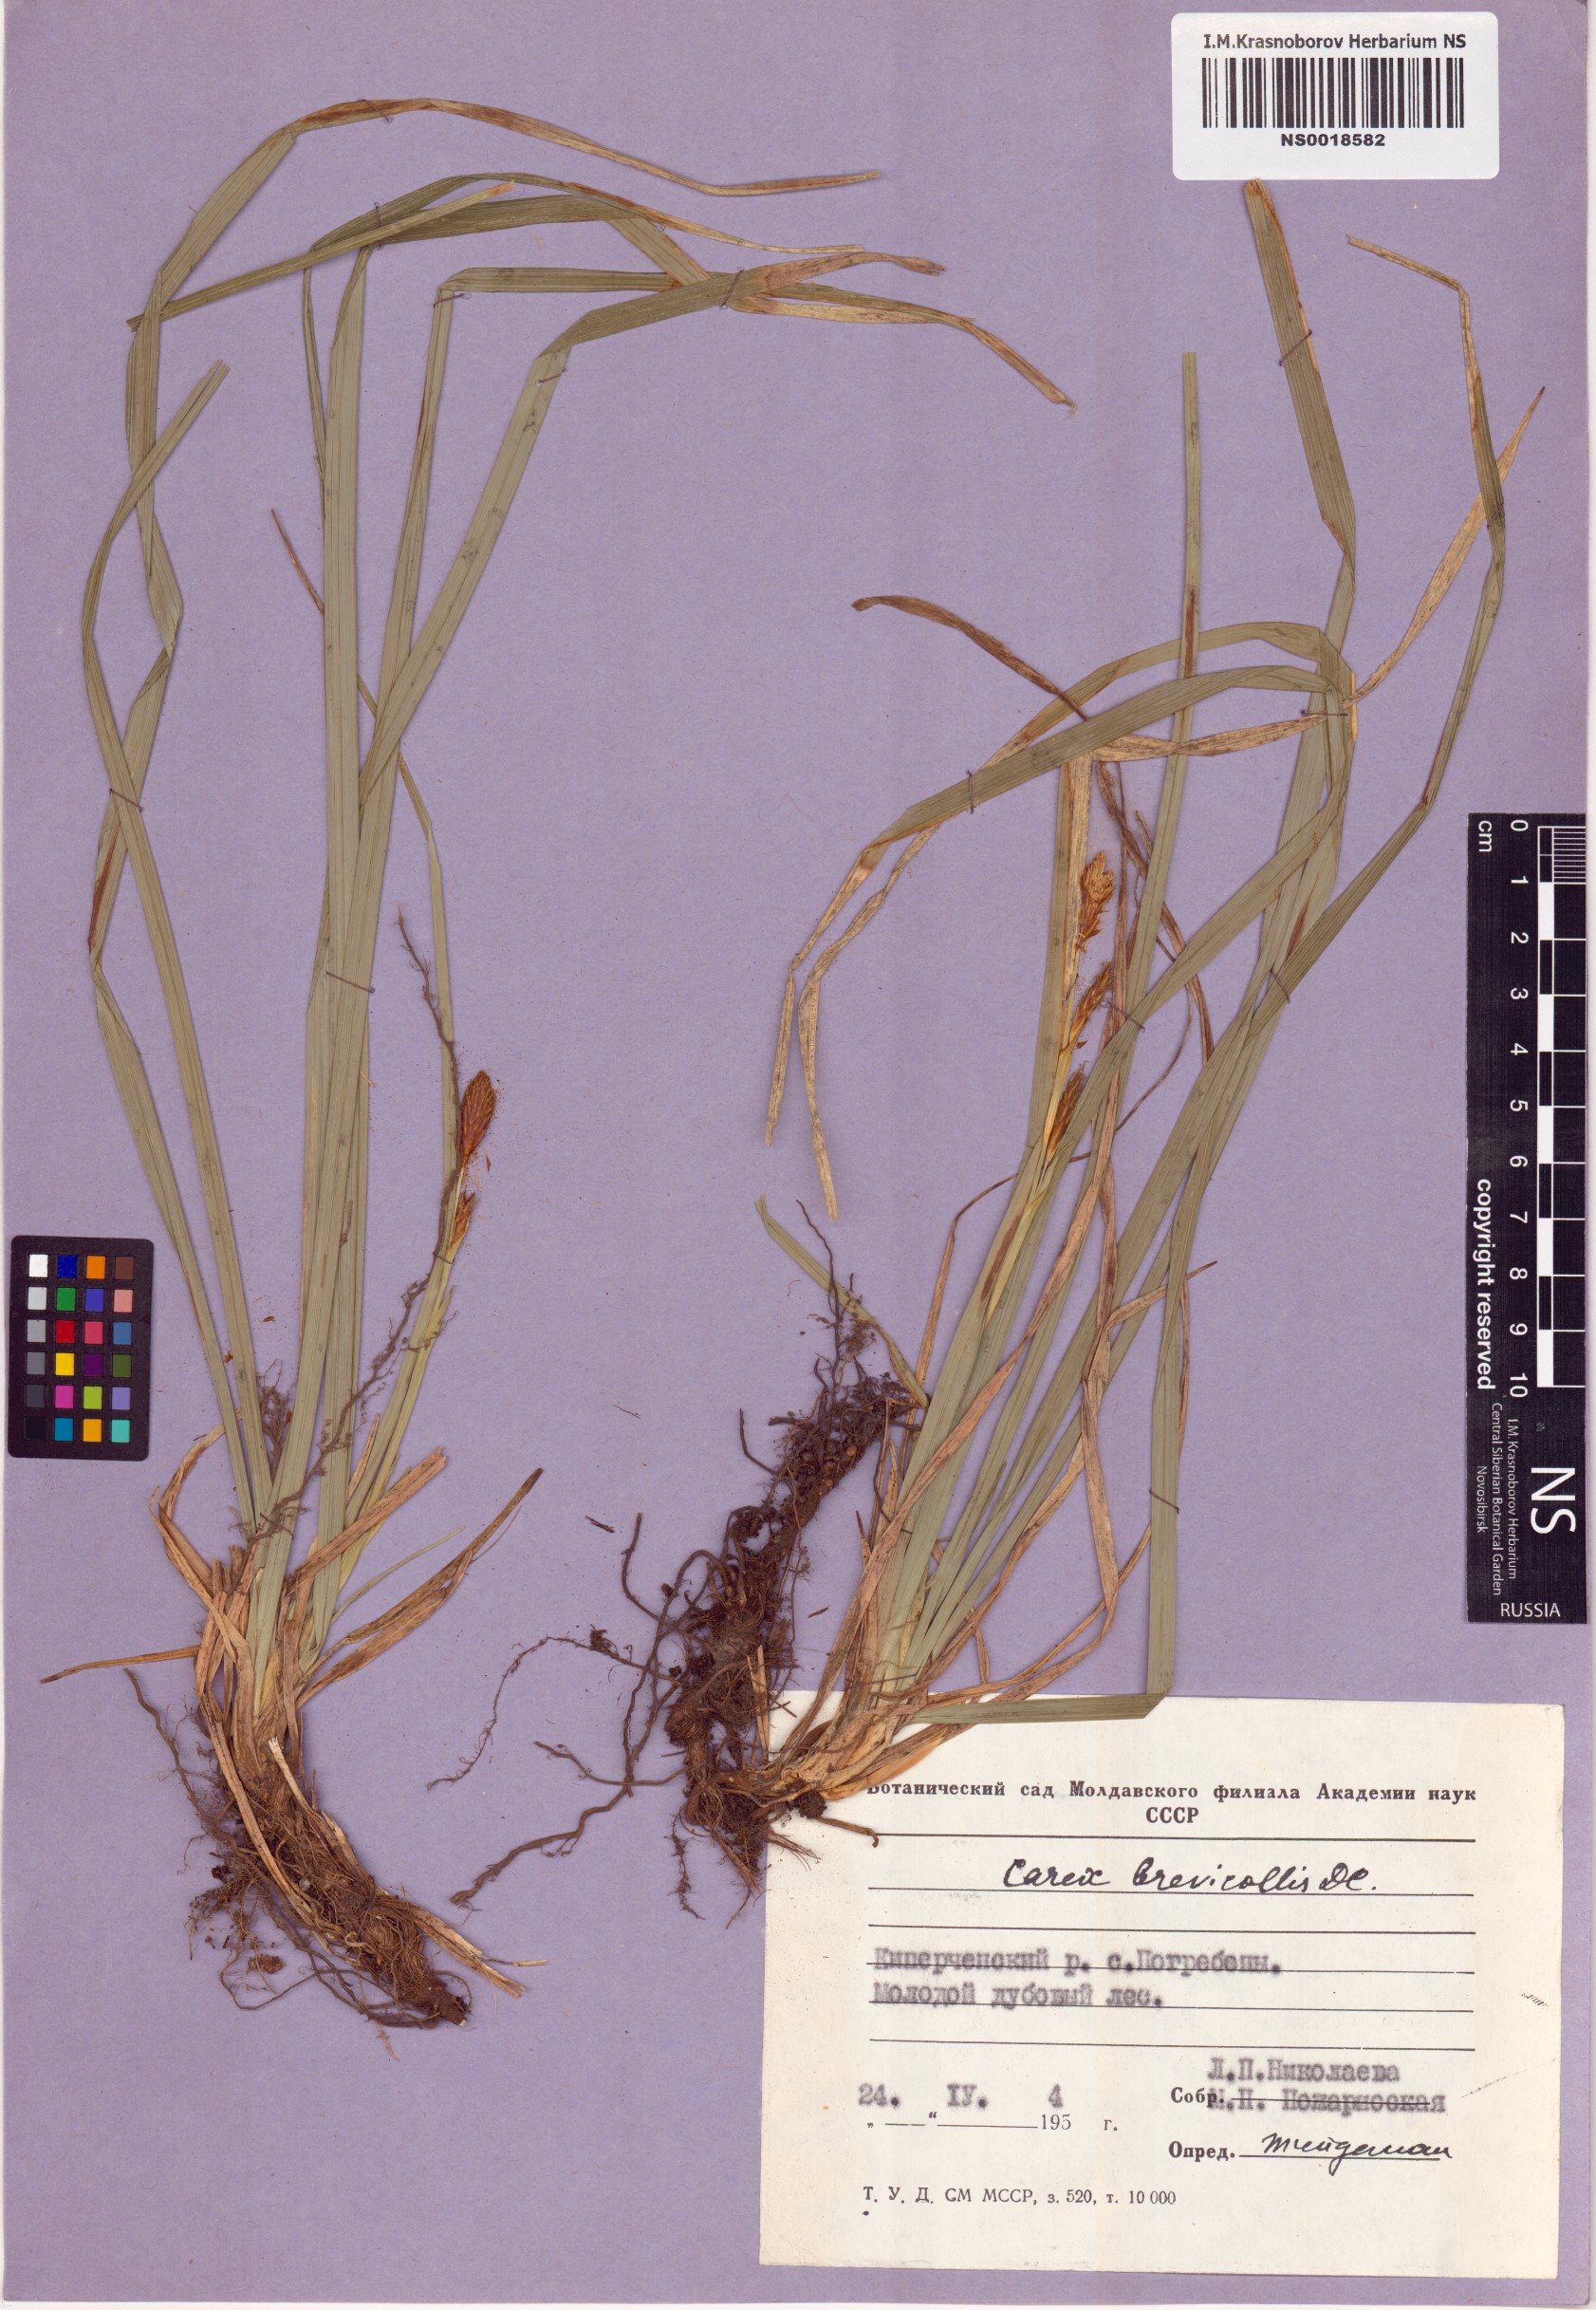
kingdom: Plantae
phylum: Tracheophyta
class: Liliopsida
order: Poales
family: Cyperaceae
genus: Carex
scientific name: Carex brevicollis
